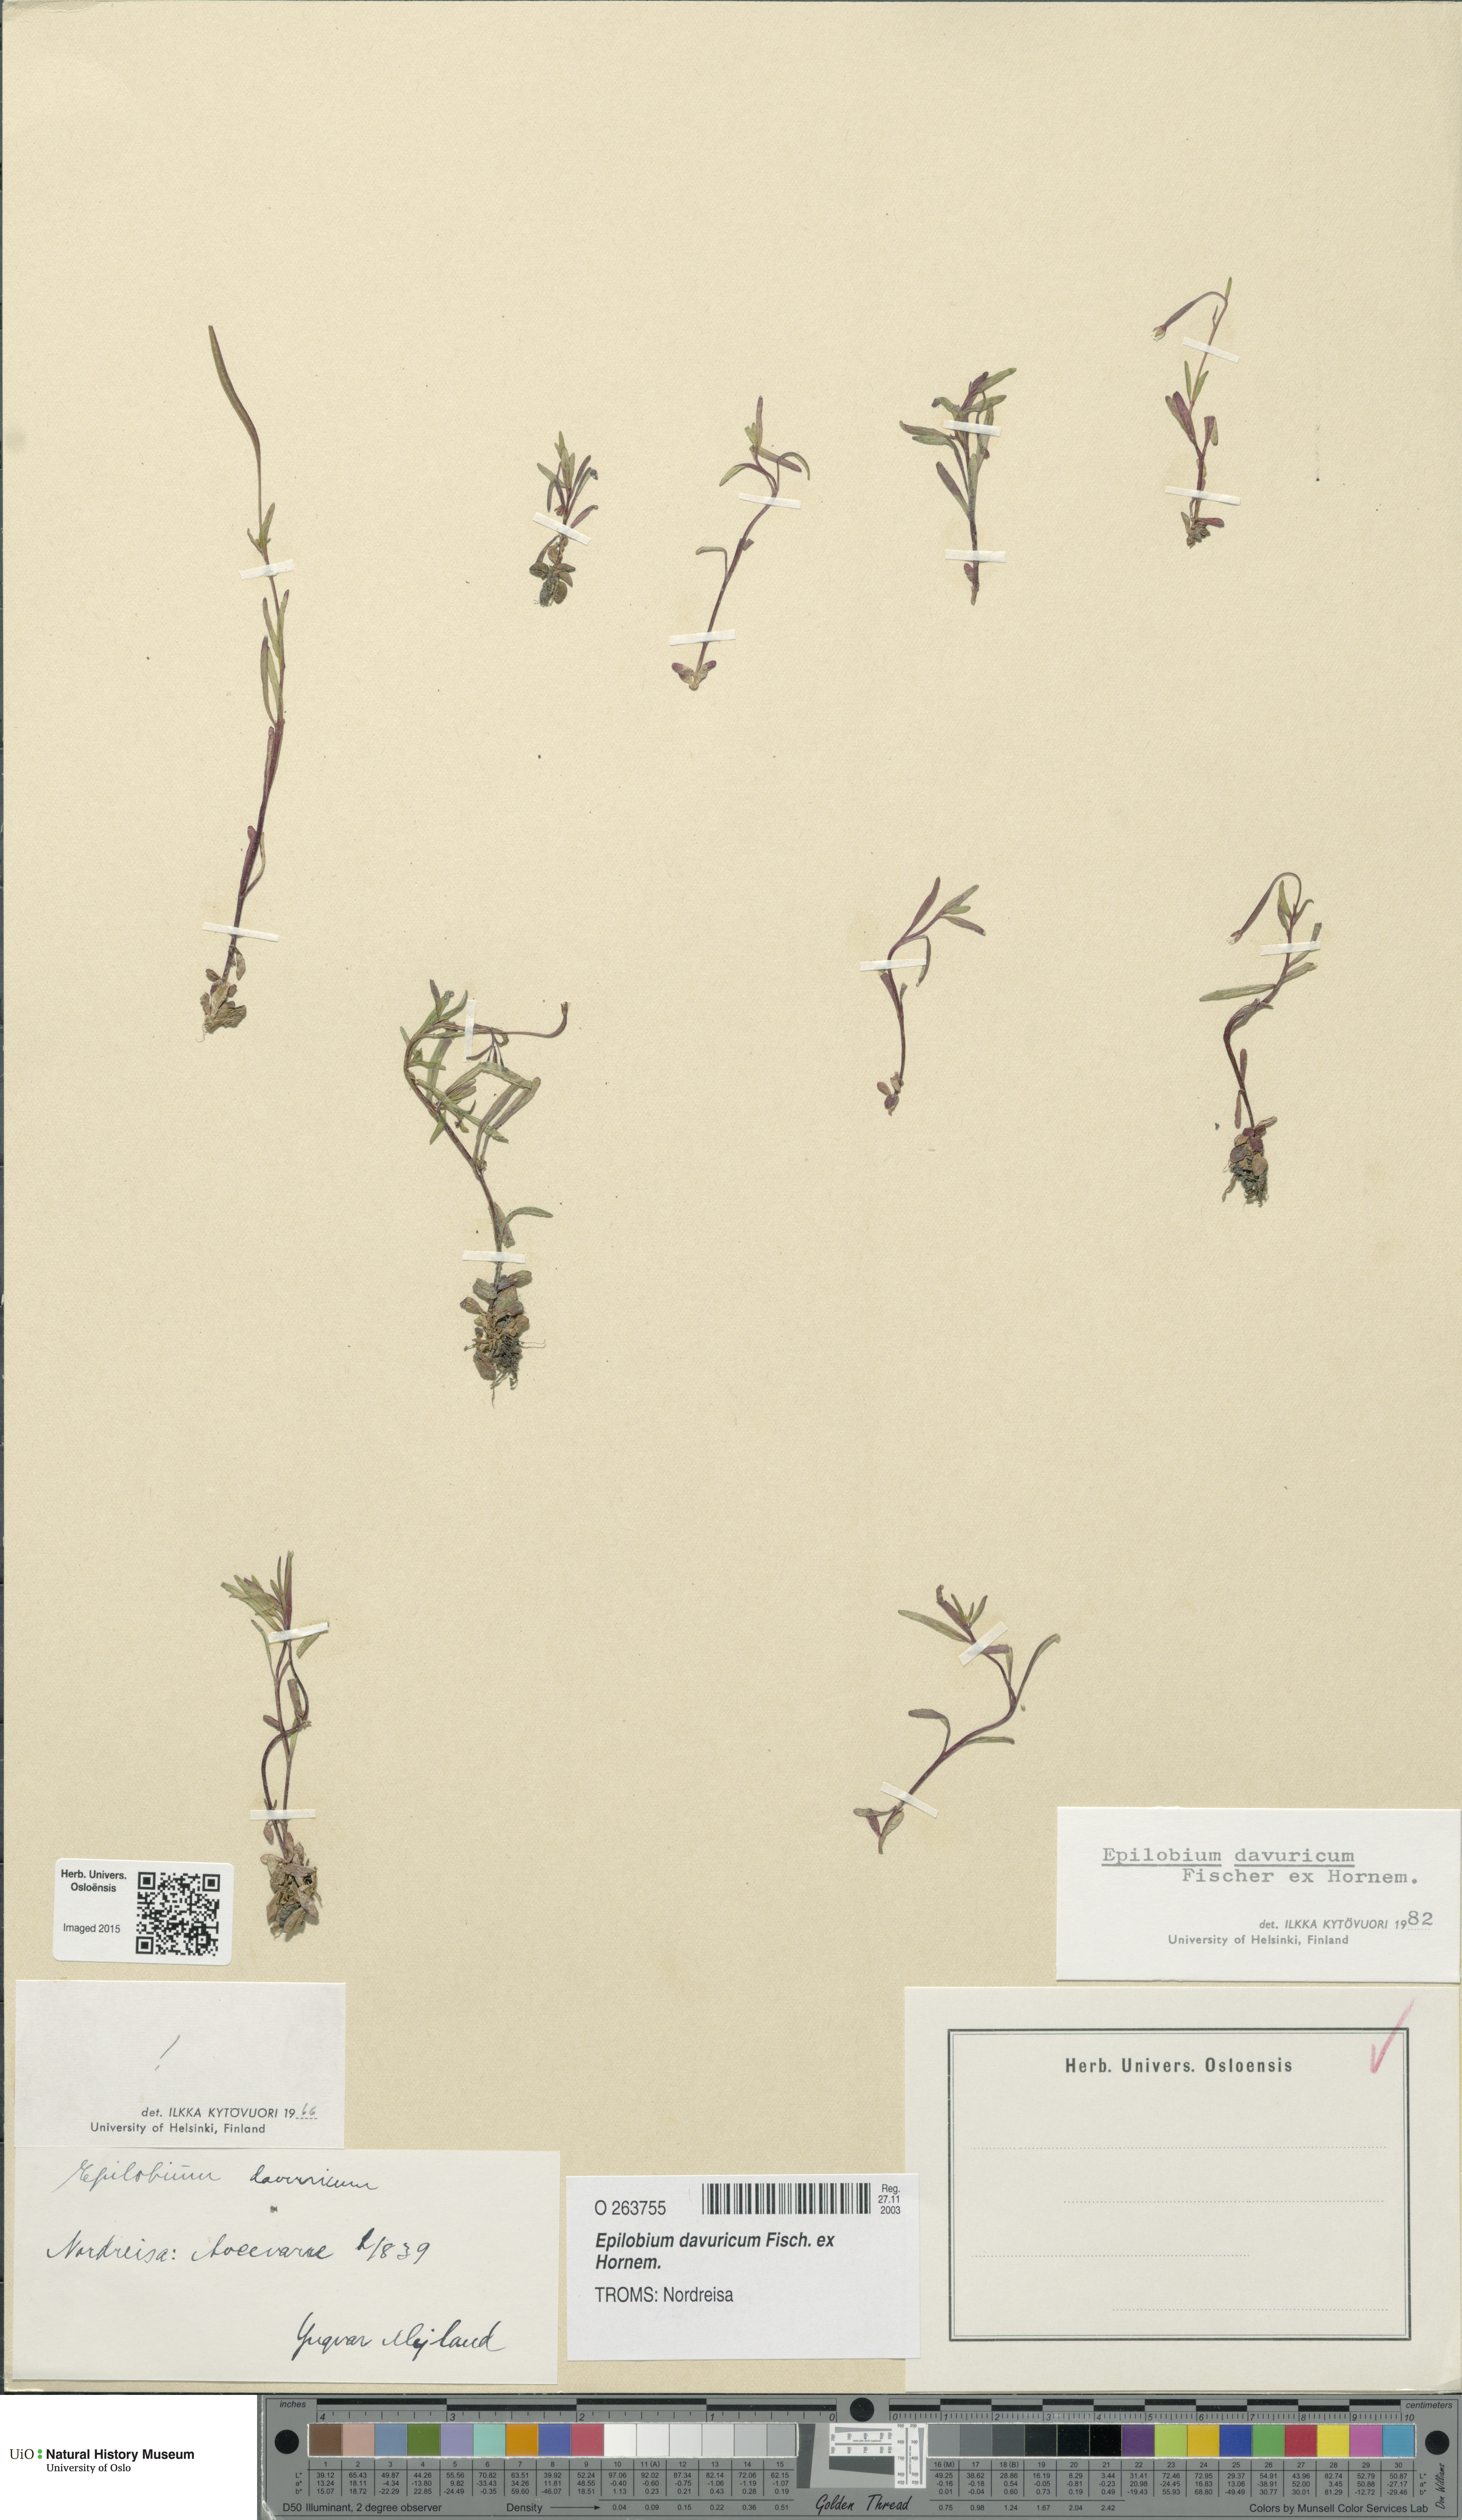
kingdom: Plantae
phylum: Tracheophyta
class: Magnoliopsida
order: Myrtales
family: Onagraceae
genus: Epilobium
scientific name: Epilobium davuricum
